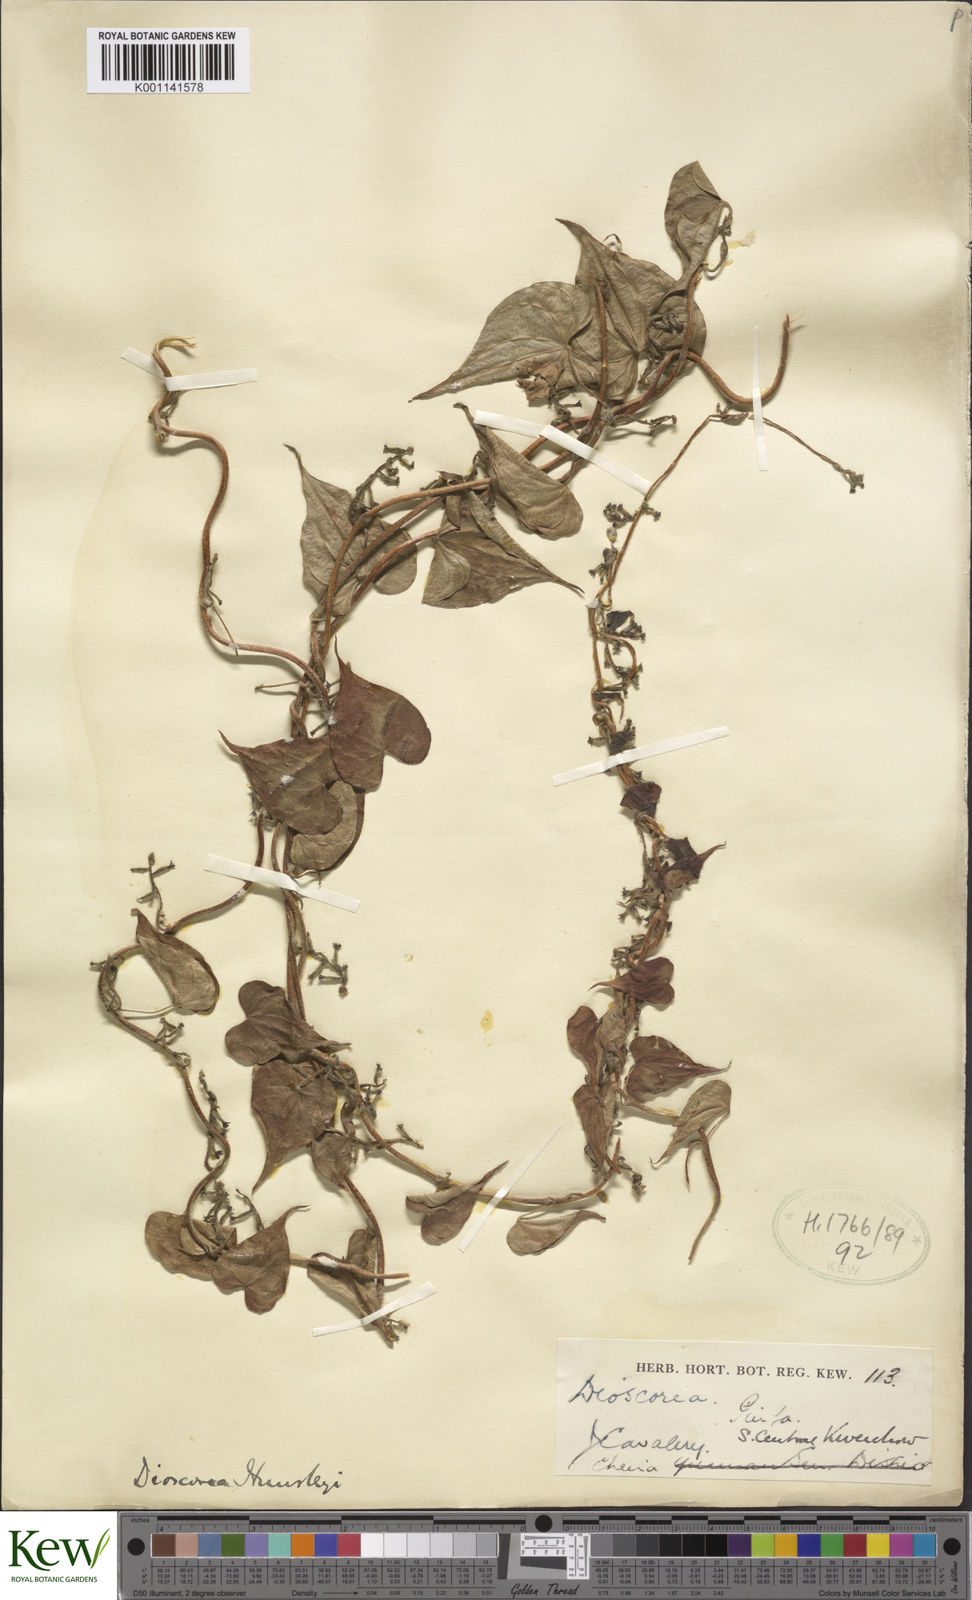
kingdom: Plantae
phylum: Tracheophyta
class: Liliopsida
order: Dioscoreales
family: Dioscoreaceae
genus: Dioscorea
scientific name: Dioscorea hemsleyi
